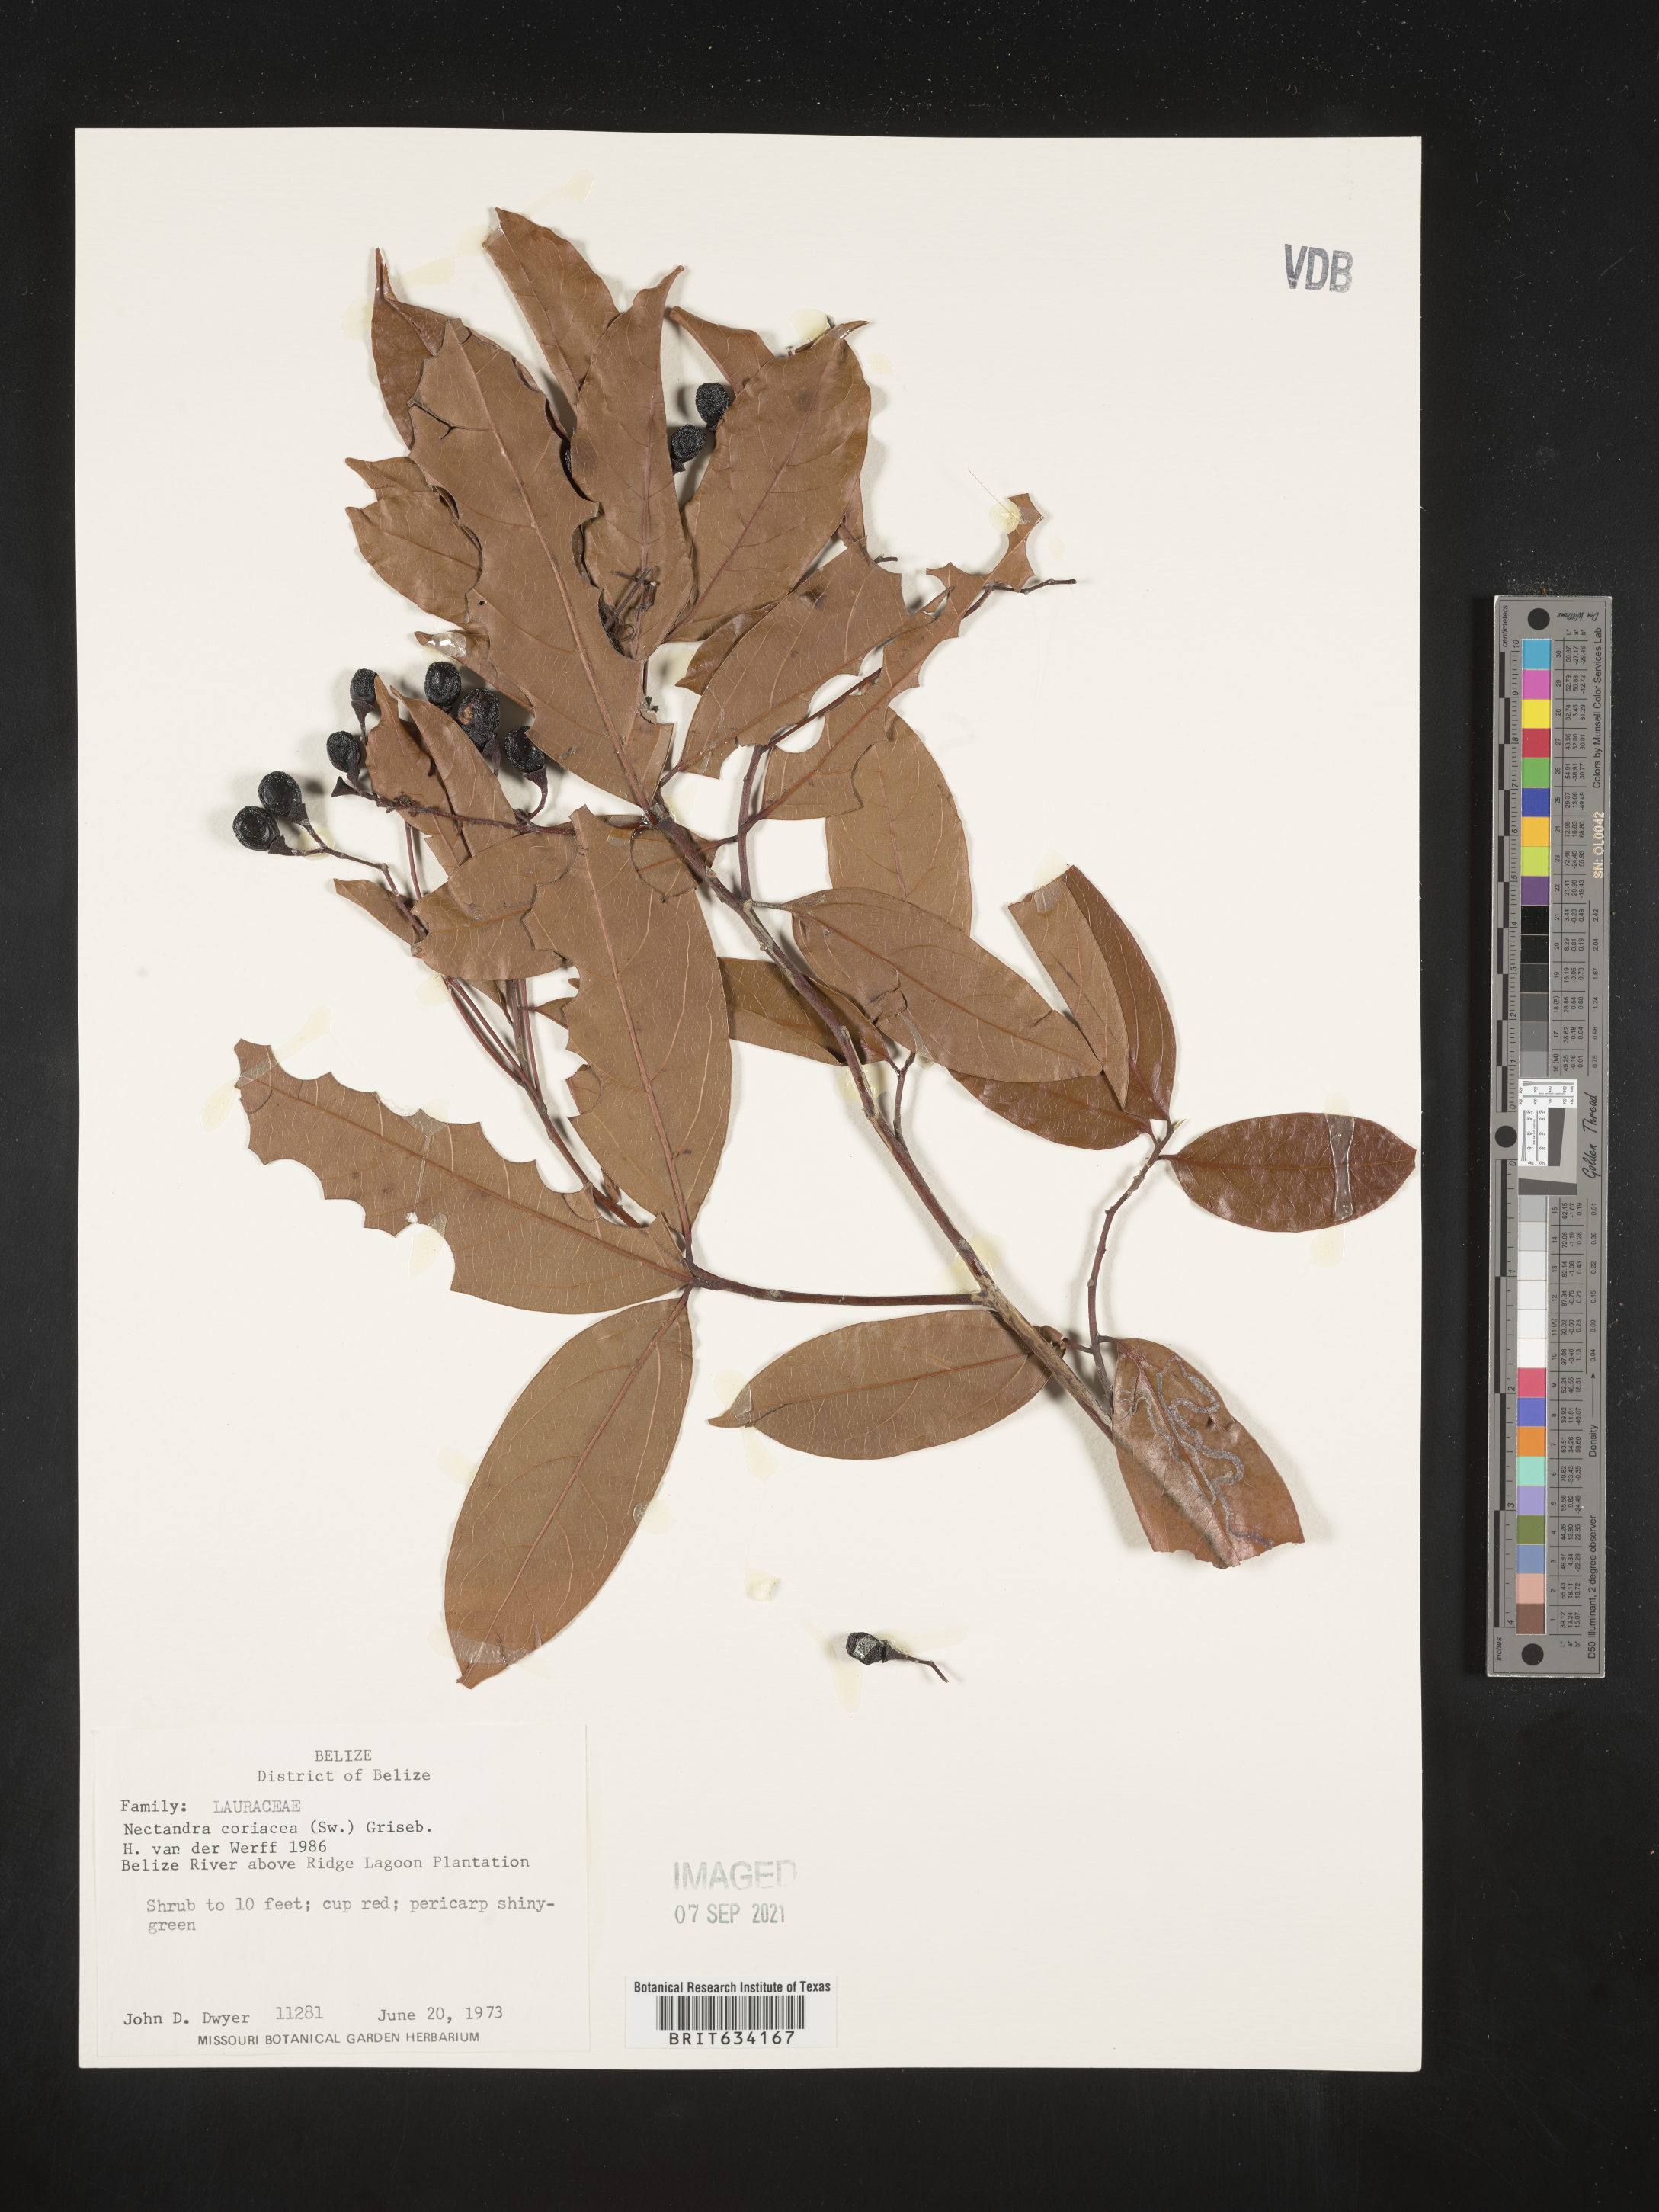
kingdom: Plantae
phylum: Tracheophyta
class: Magnoliopsida
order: Laurales
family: Lauraceae
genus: Nectandra
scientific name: Nectandra
